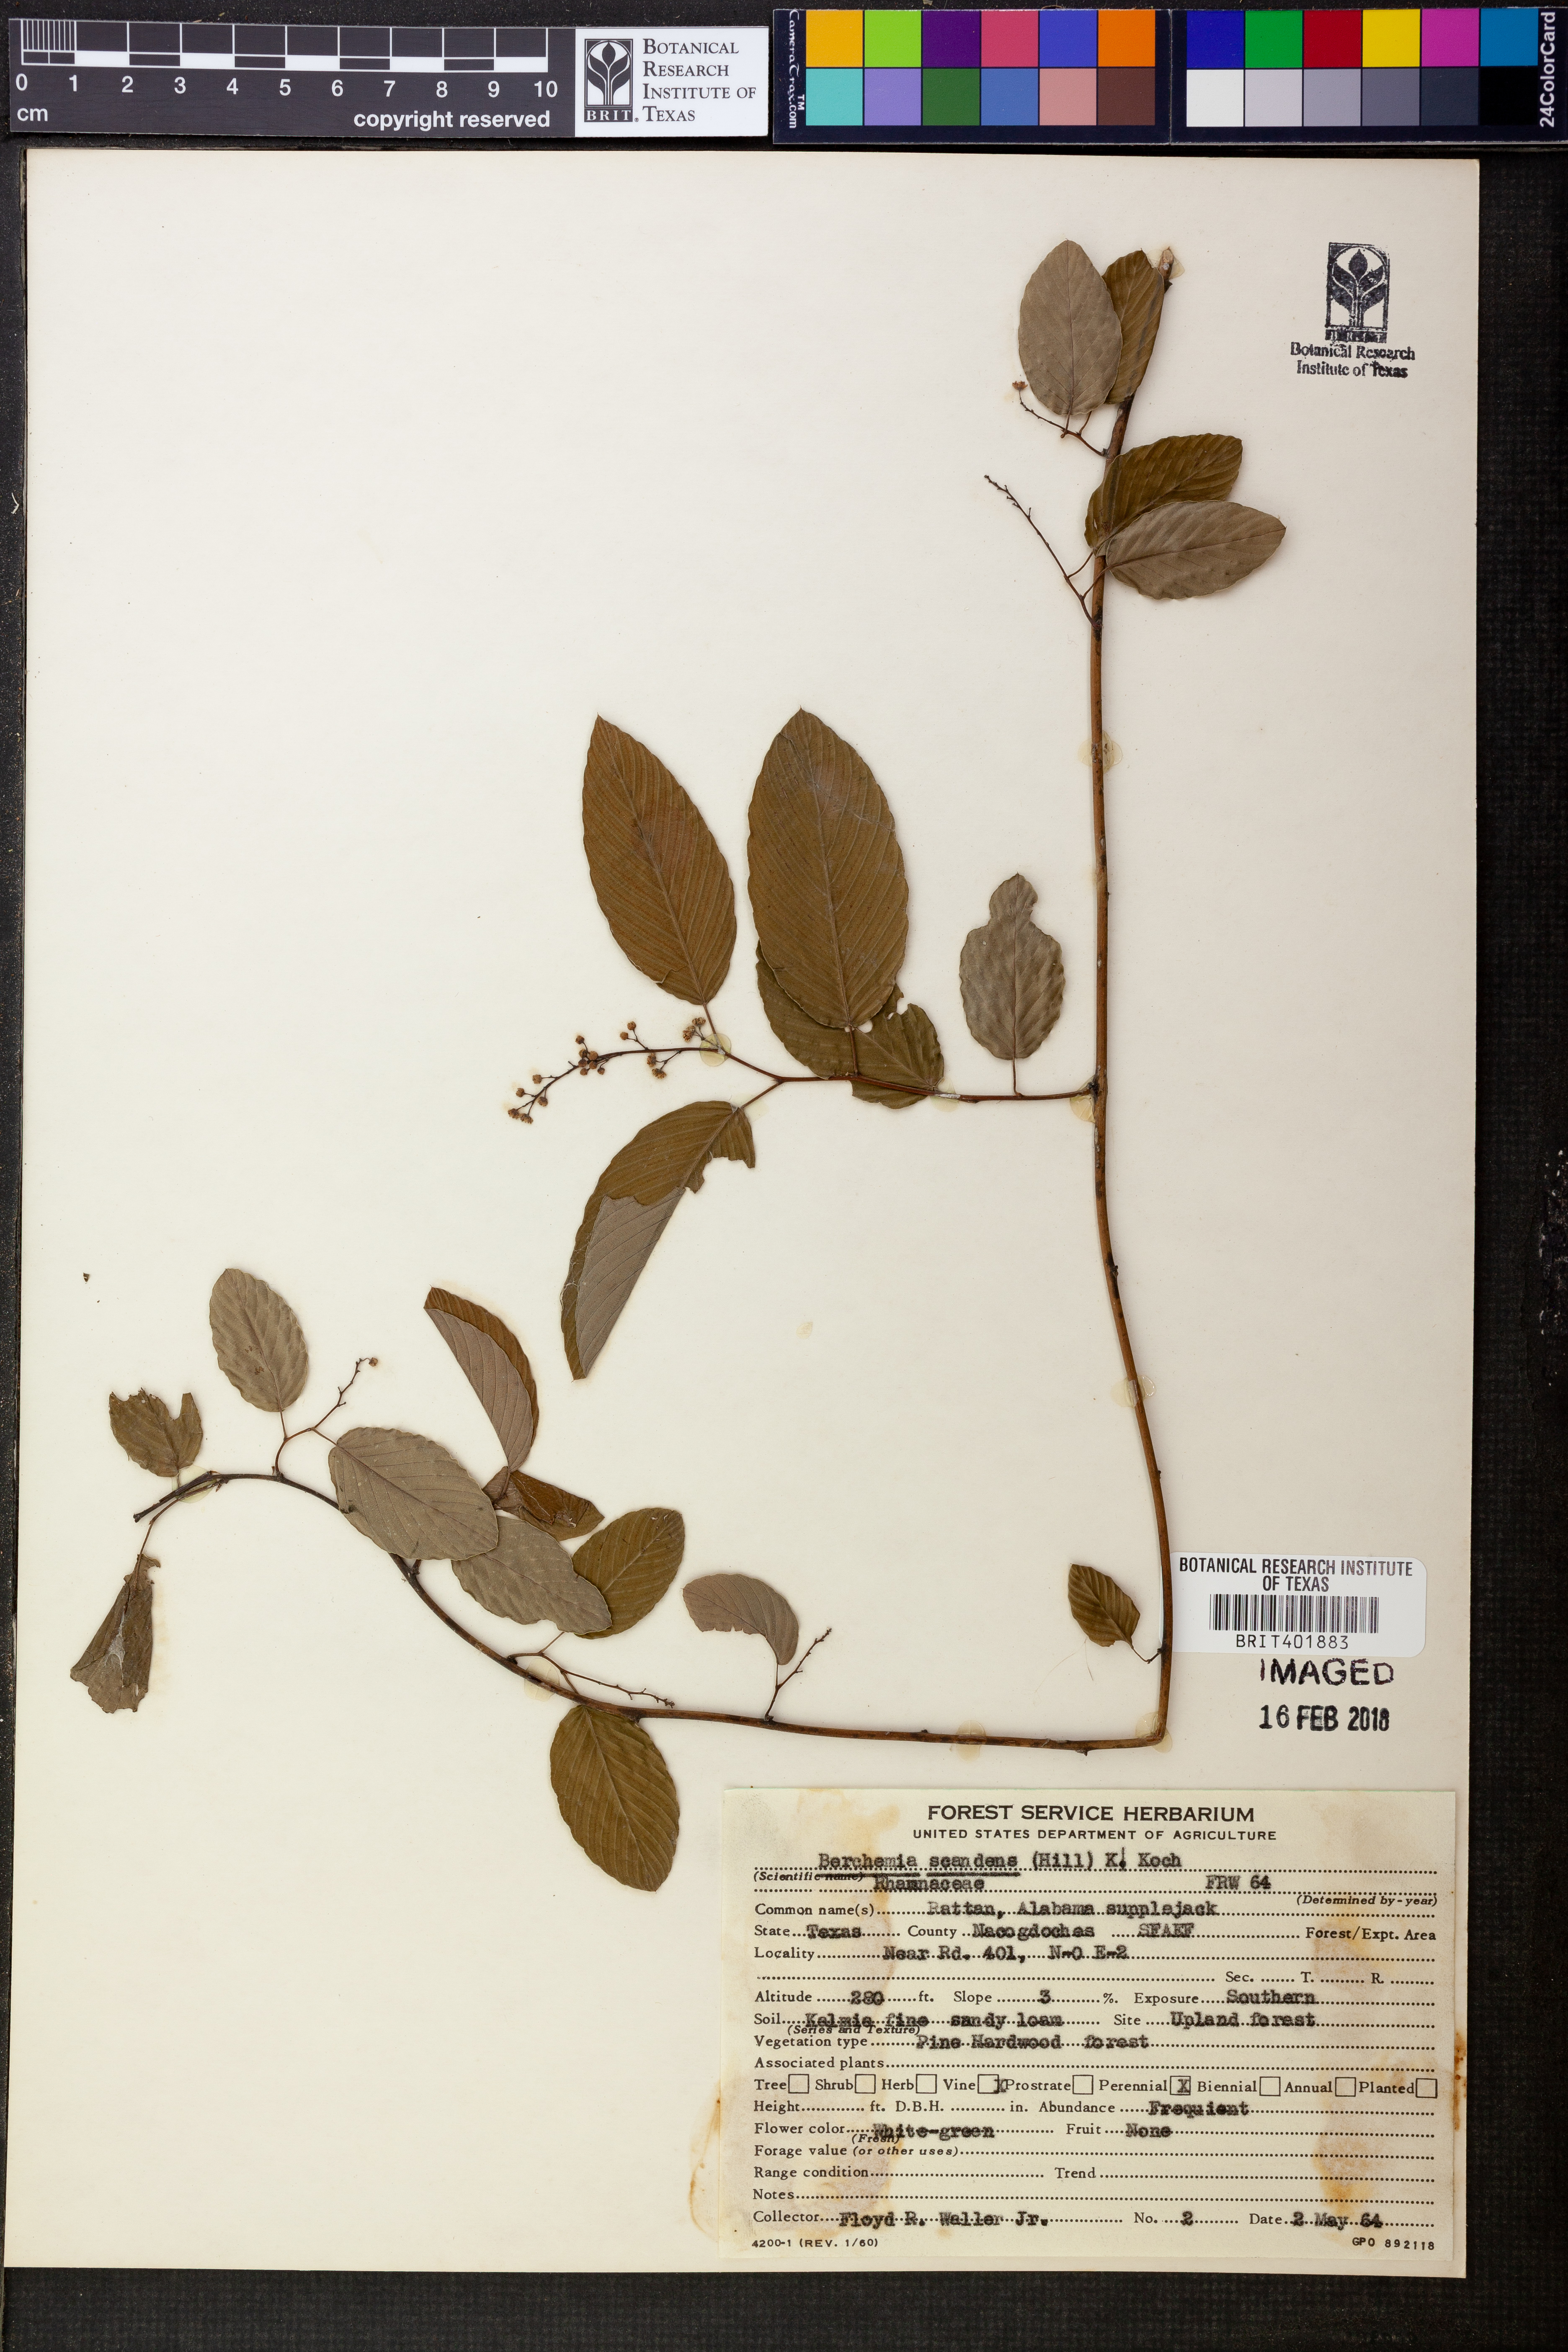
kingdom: Plantae
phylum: Tracheophyta
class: Magnoliopsida
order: Rosales
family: Rhamnaceae
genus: Berchemia
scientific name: Berchemia scandens
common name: Supplejack
